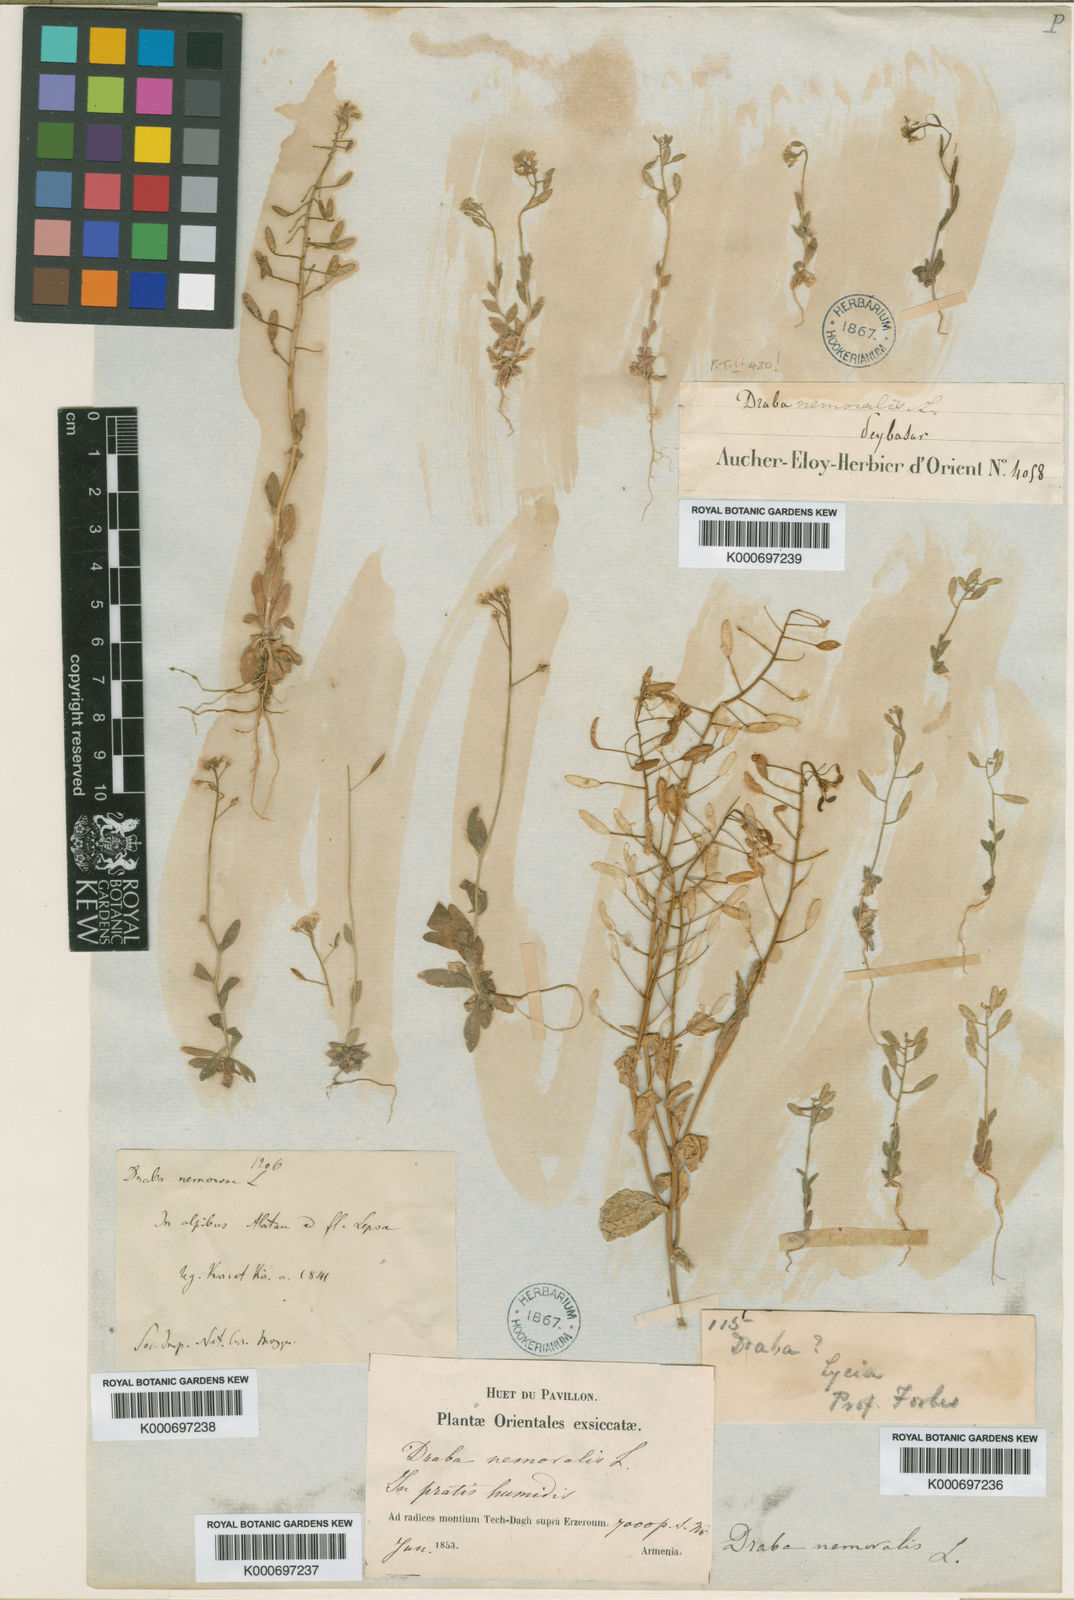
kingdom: Plantae
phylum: Tracheophyta
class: Magnoliopsida
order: Brassicales
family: Brassicaceae
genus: Draba
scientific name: Draba huetii
